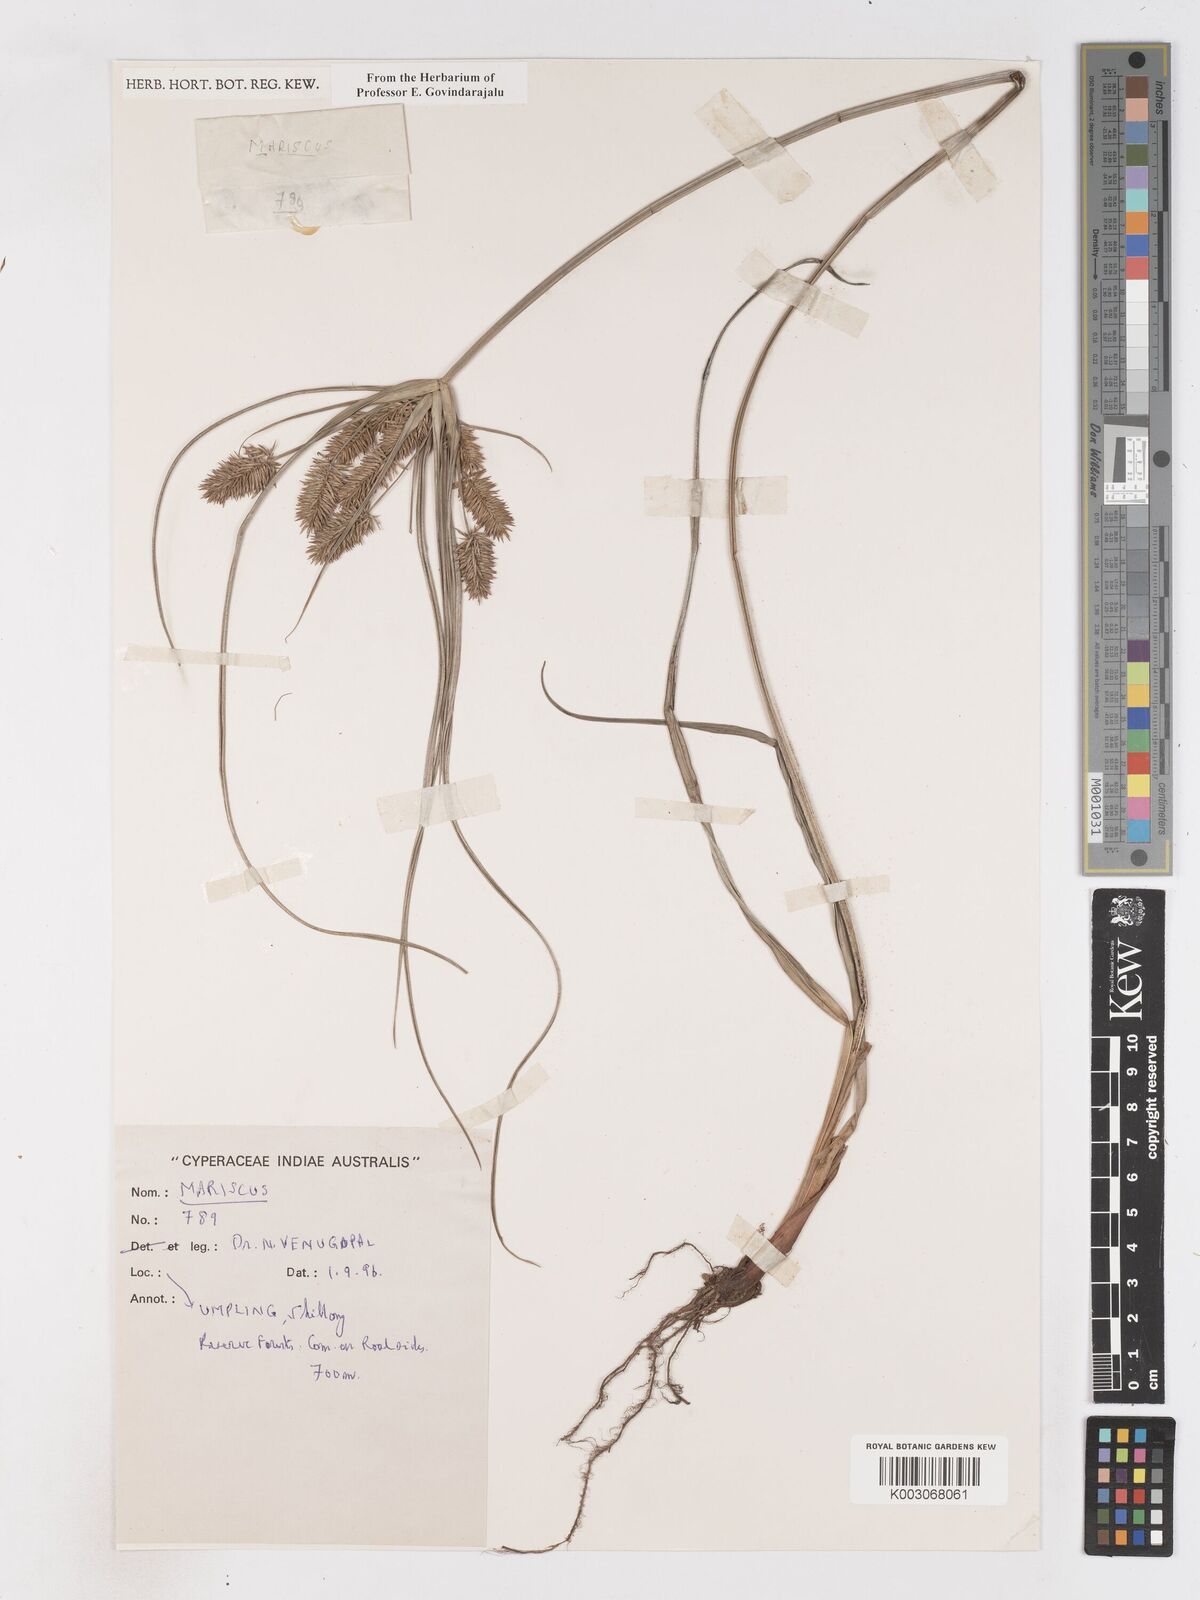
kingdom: Plantae
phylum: Tracheophyta
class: Liliopsida
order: Poales
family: Cyperaceae
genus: Cyperus
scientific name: Cyperus
